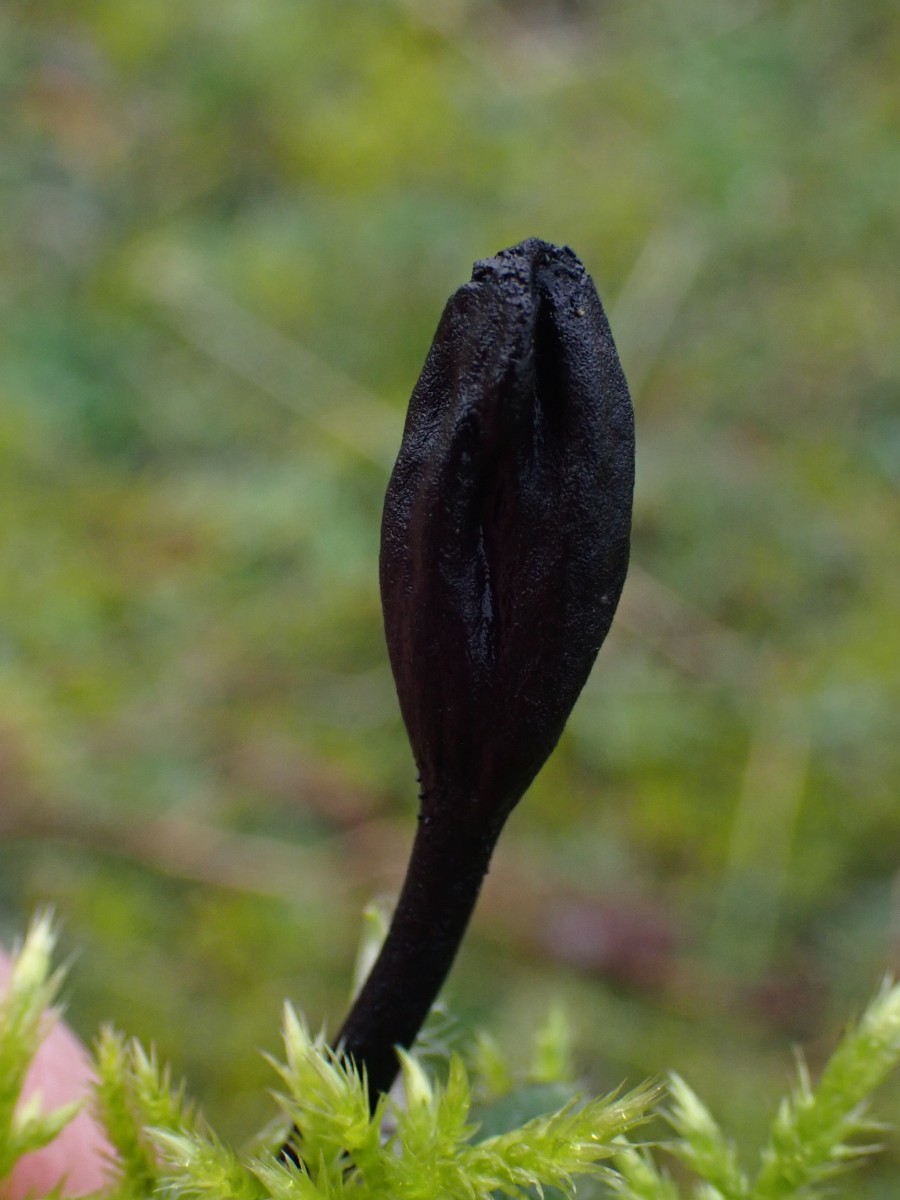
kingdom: Fungi
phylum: Ascomycota
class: Geoglossomycetes
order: Geoglossales
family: Geoglossaceae
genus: Trichoglossum
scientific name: Trichoglossum hirsutum
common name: håret jordtunge
